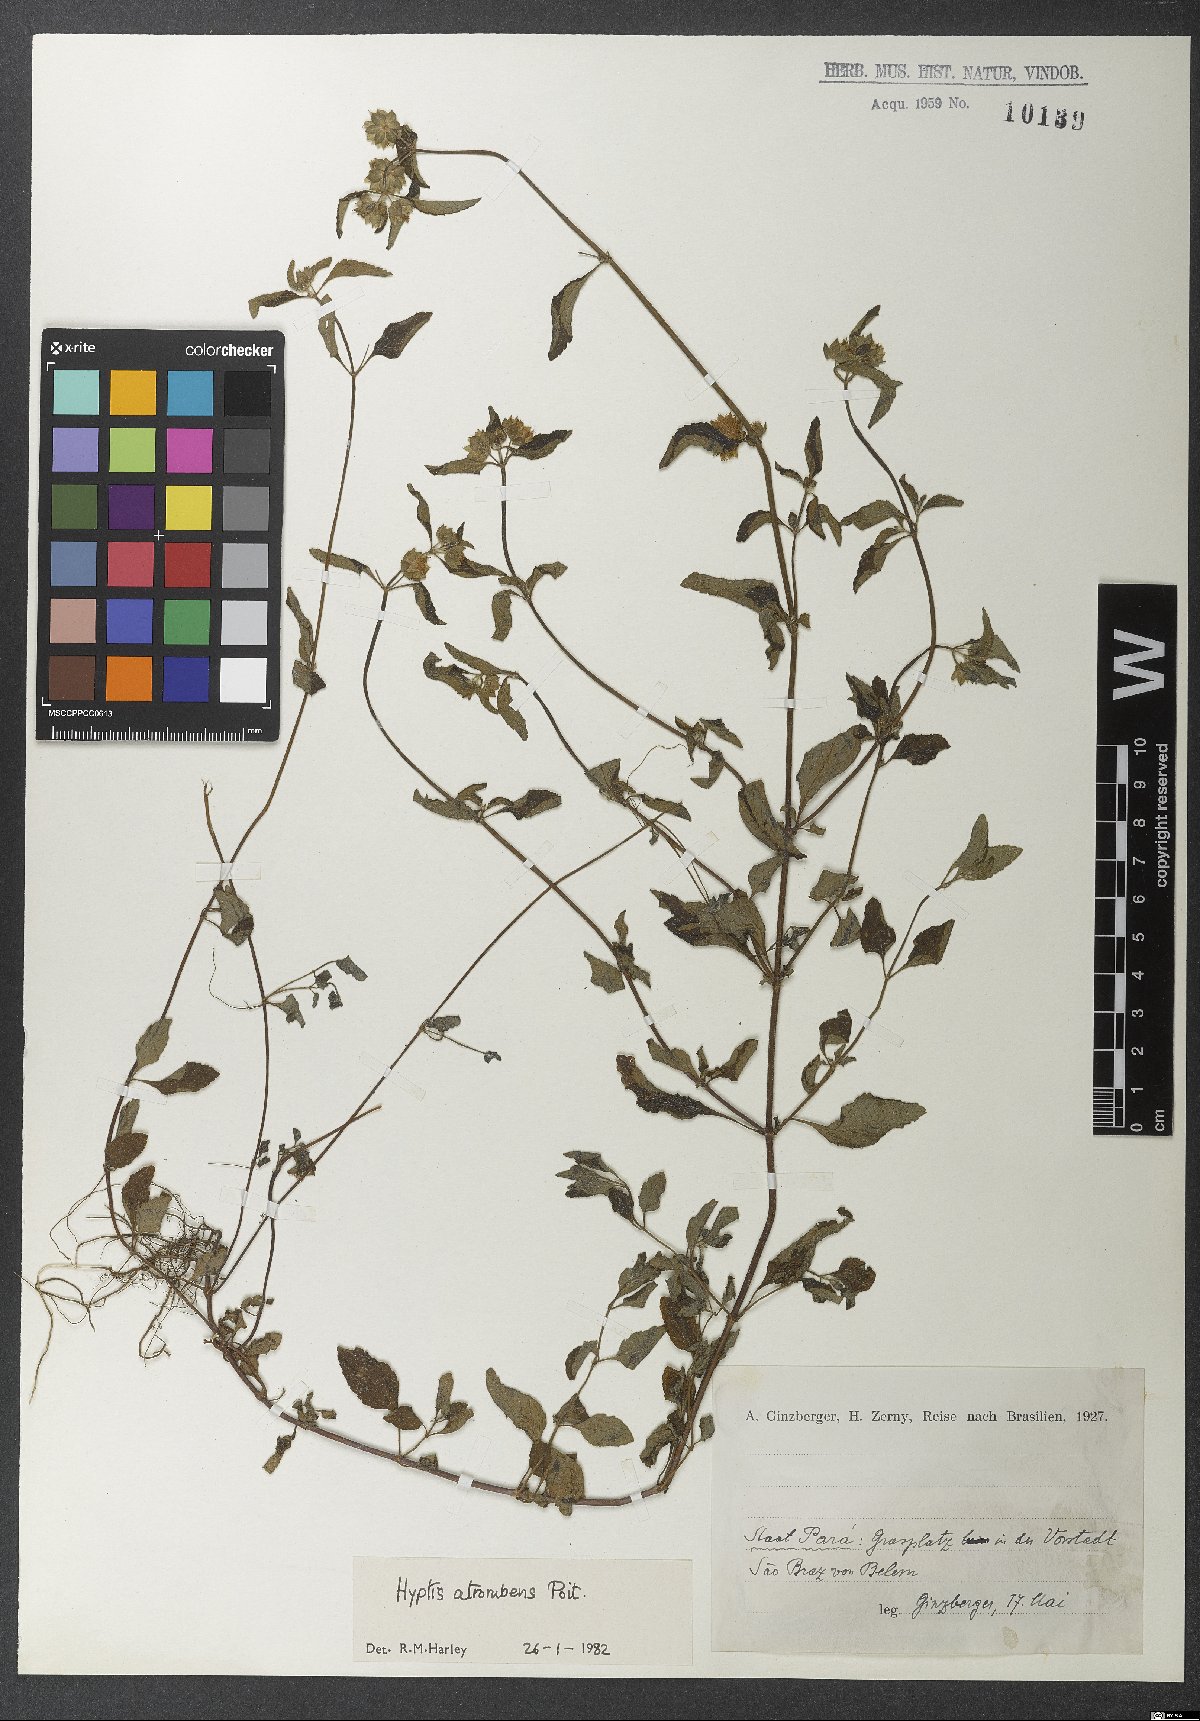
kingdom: Plantae
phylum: Tracheophyta
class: Magnoliopsida
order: Lamiales
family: Lamiaceae
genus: Hyptis
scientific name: Hyptis atrorubens
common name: Lanmant
